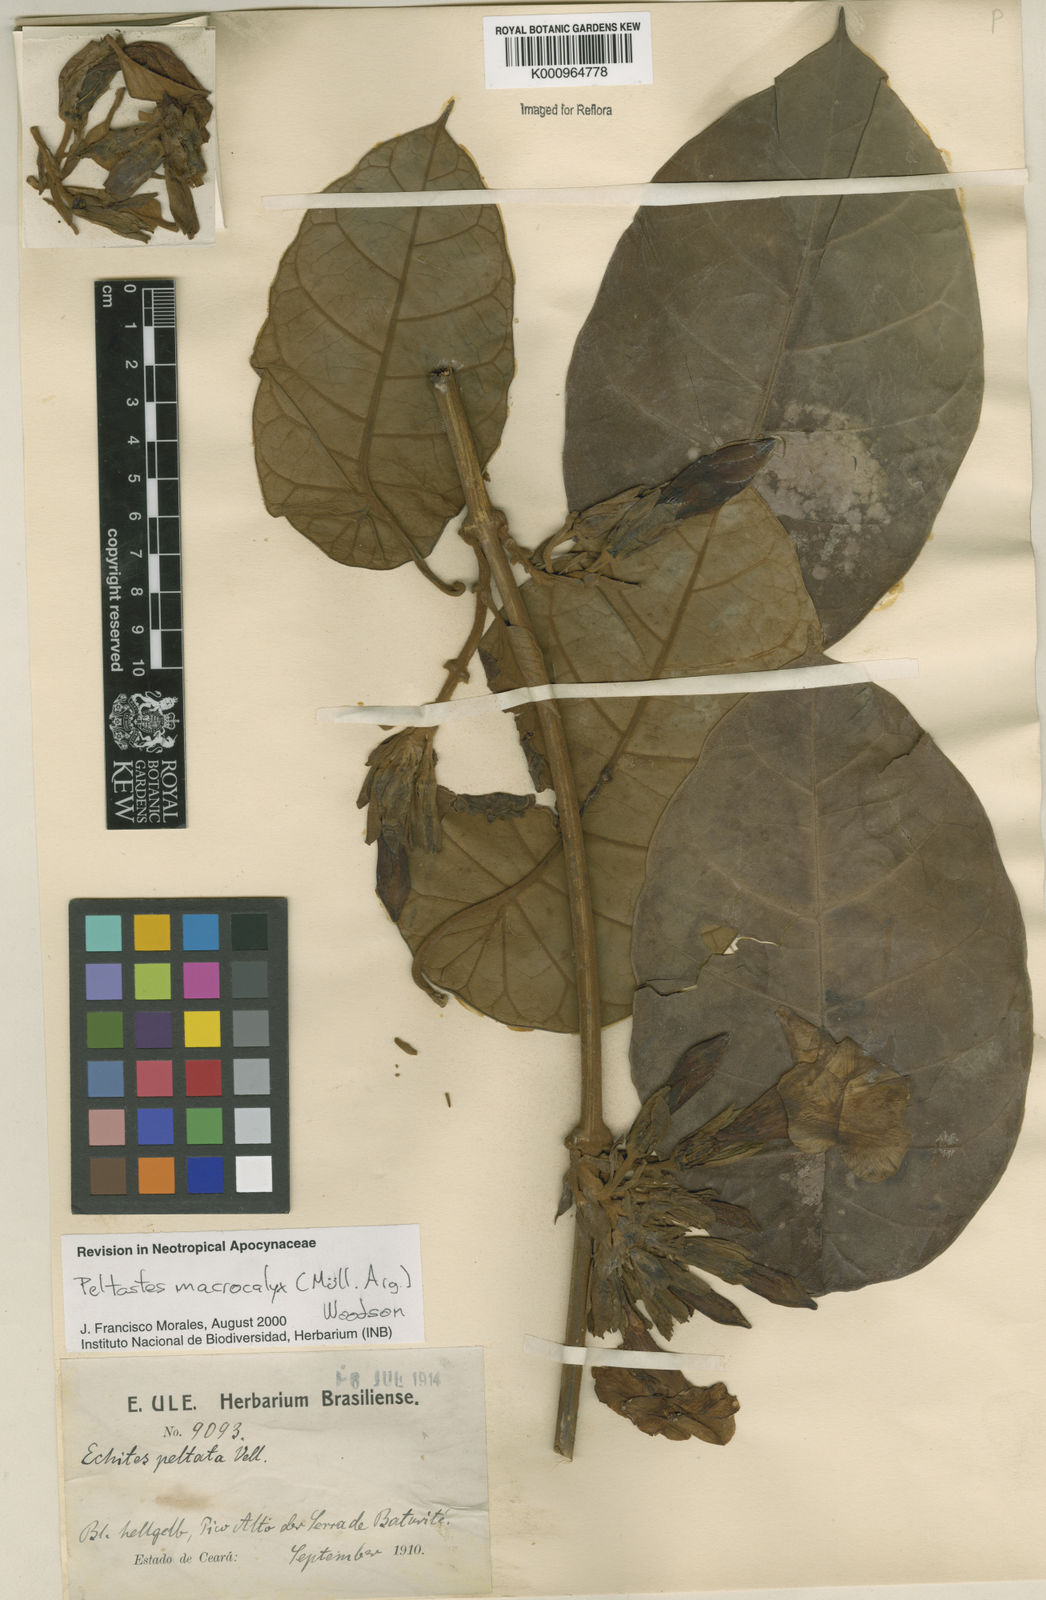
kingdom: Plantae
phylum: Tracheophyta
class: Magnoliopsida
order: Gentianales
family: Apocynaceae
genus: Macropharynx
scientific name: Macropharynx
